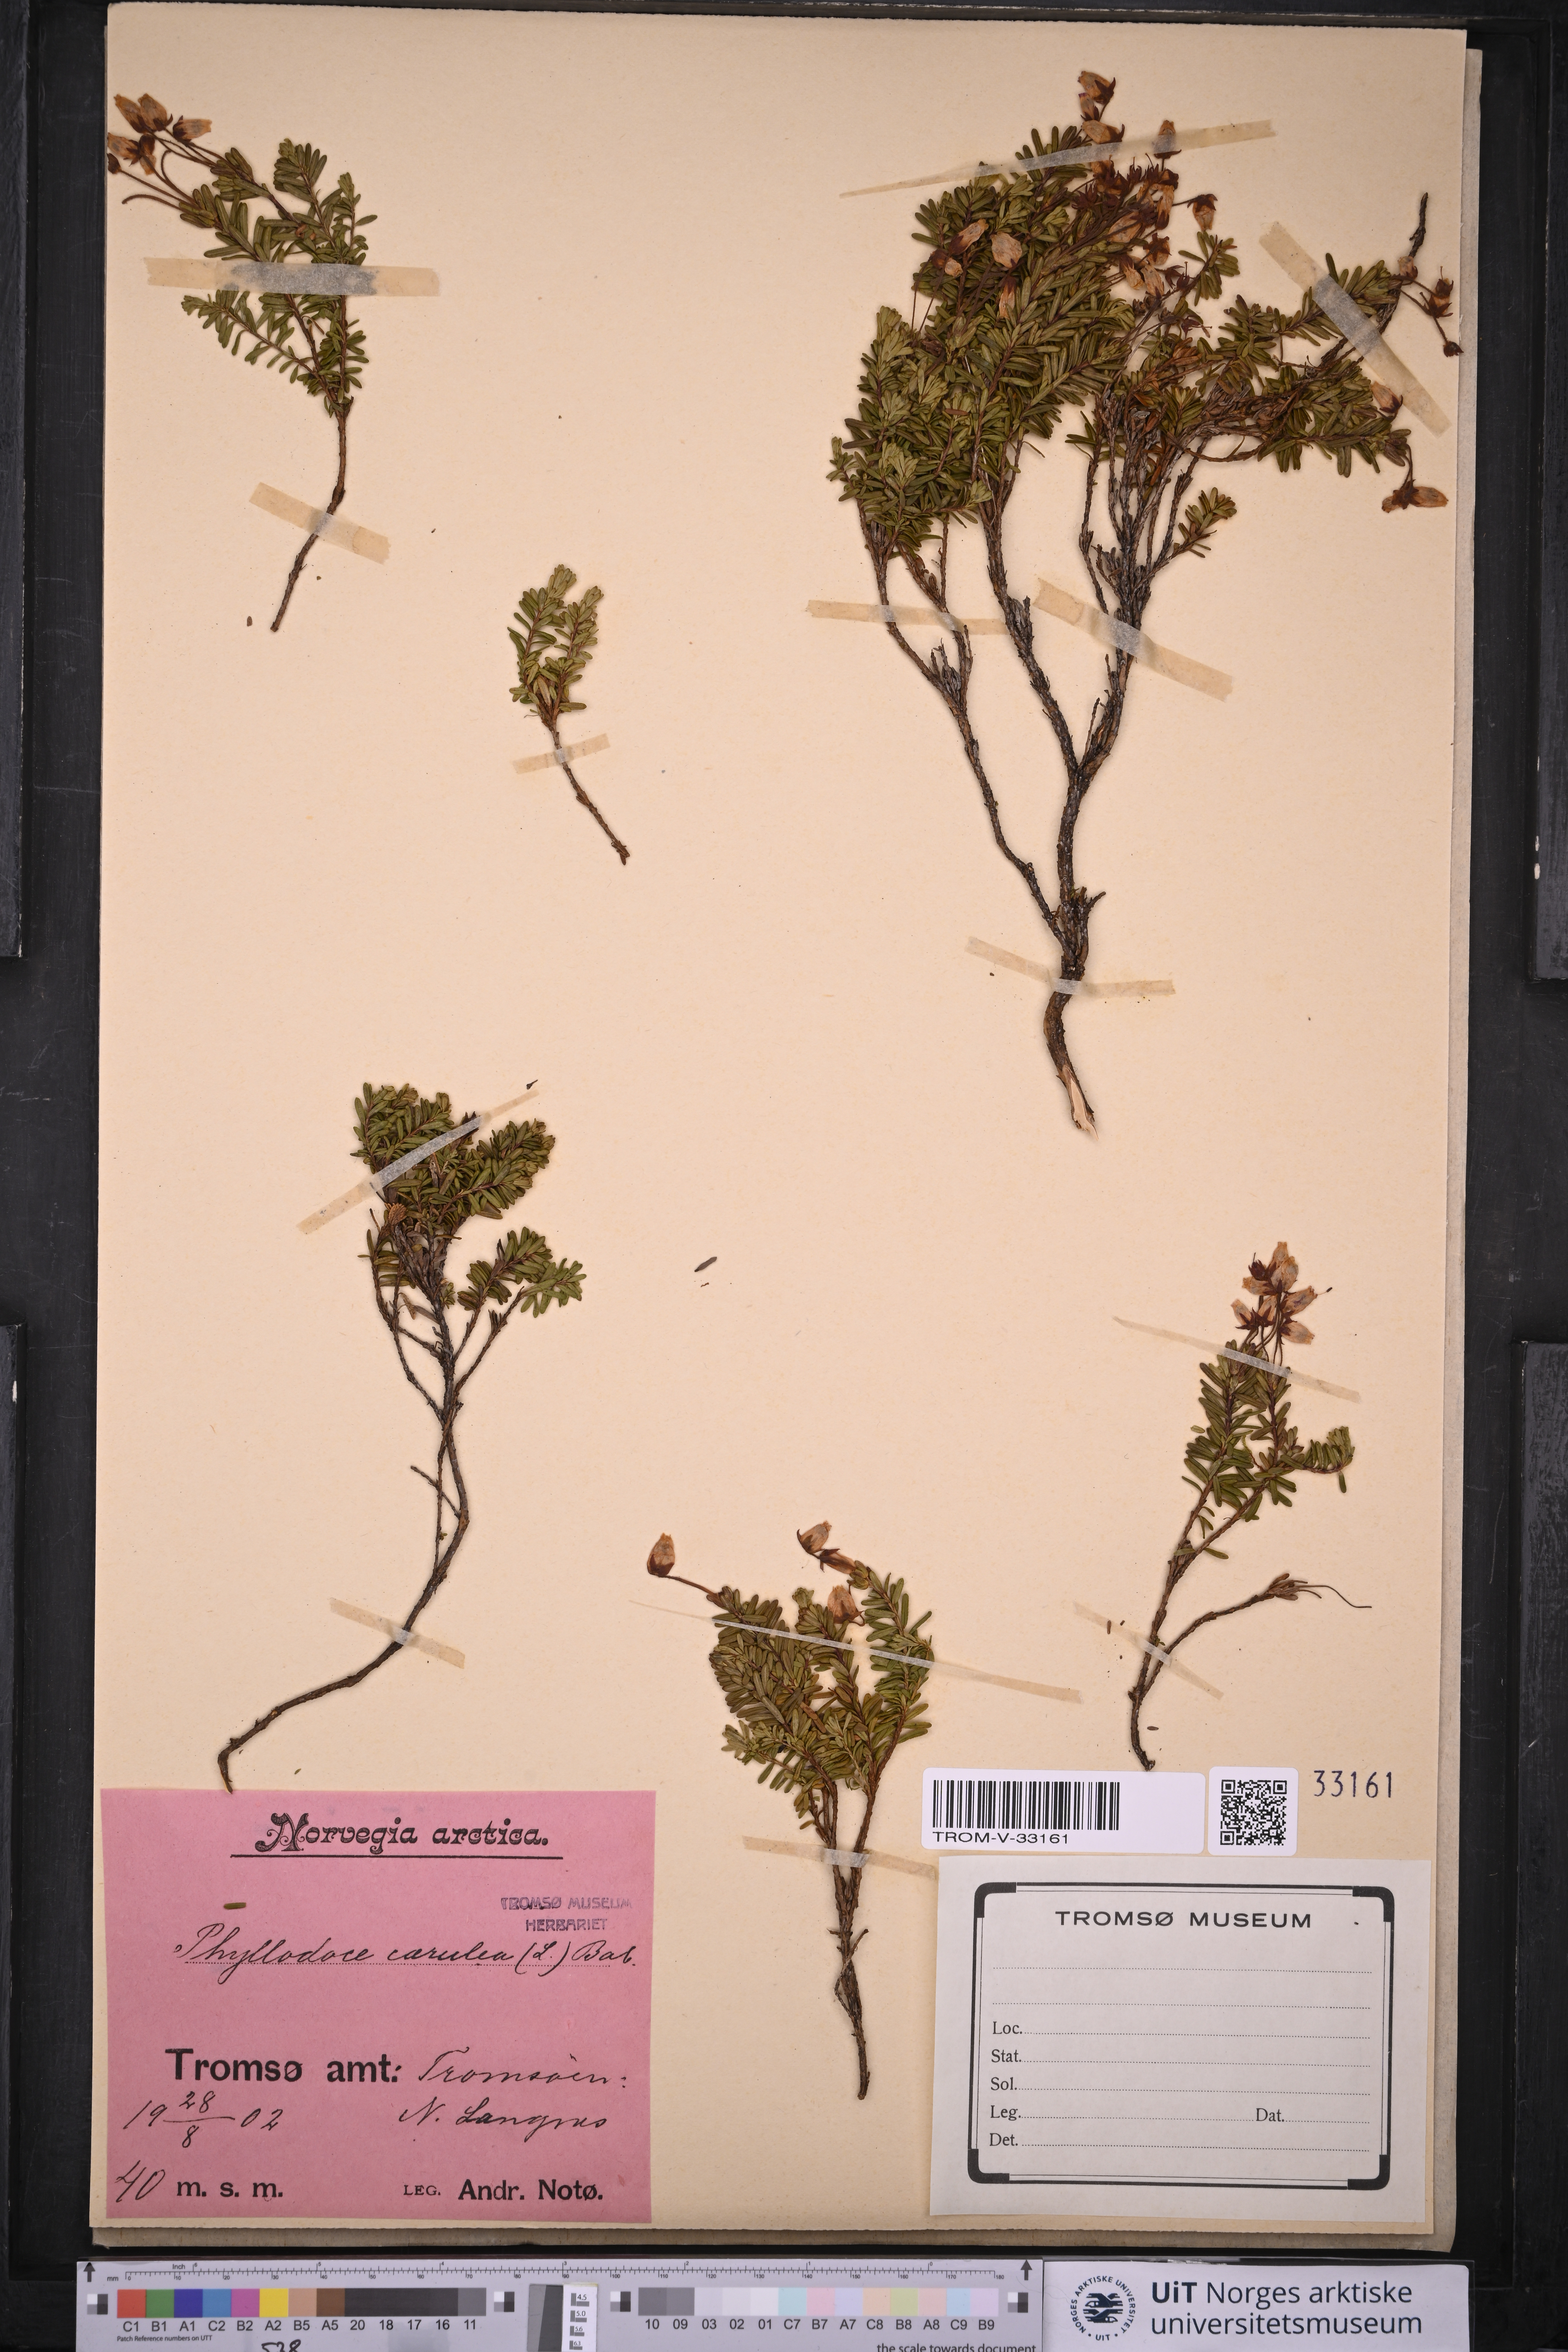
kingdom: Plantae
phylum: Tracheophyta
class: Magnoliopsida
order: Ericales
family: Ericaceae
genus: Phyllodoce
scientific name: Phyllodoce caerulea
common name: Blue heath
